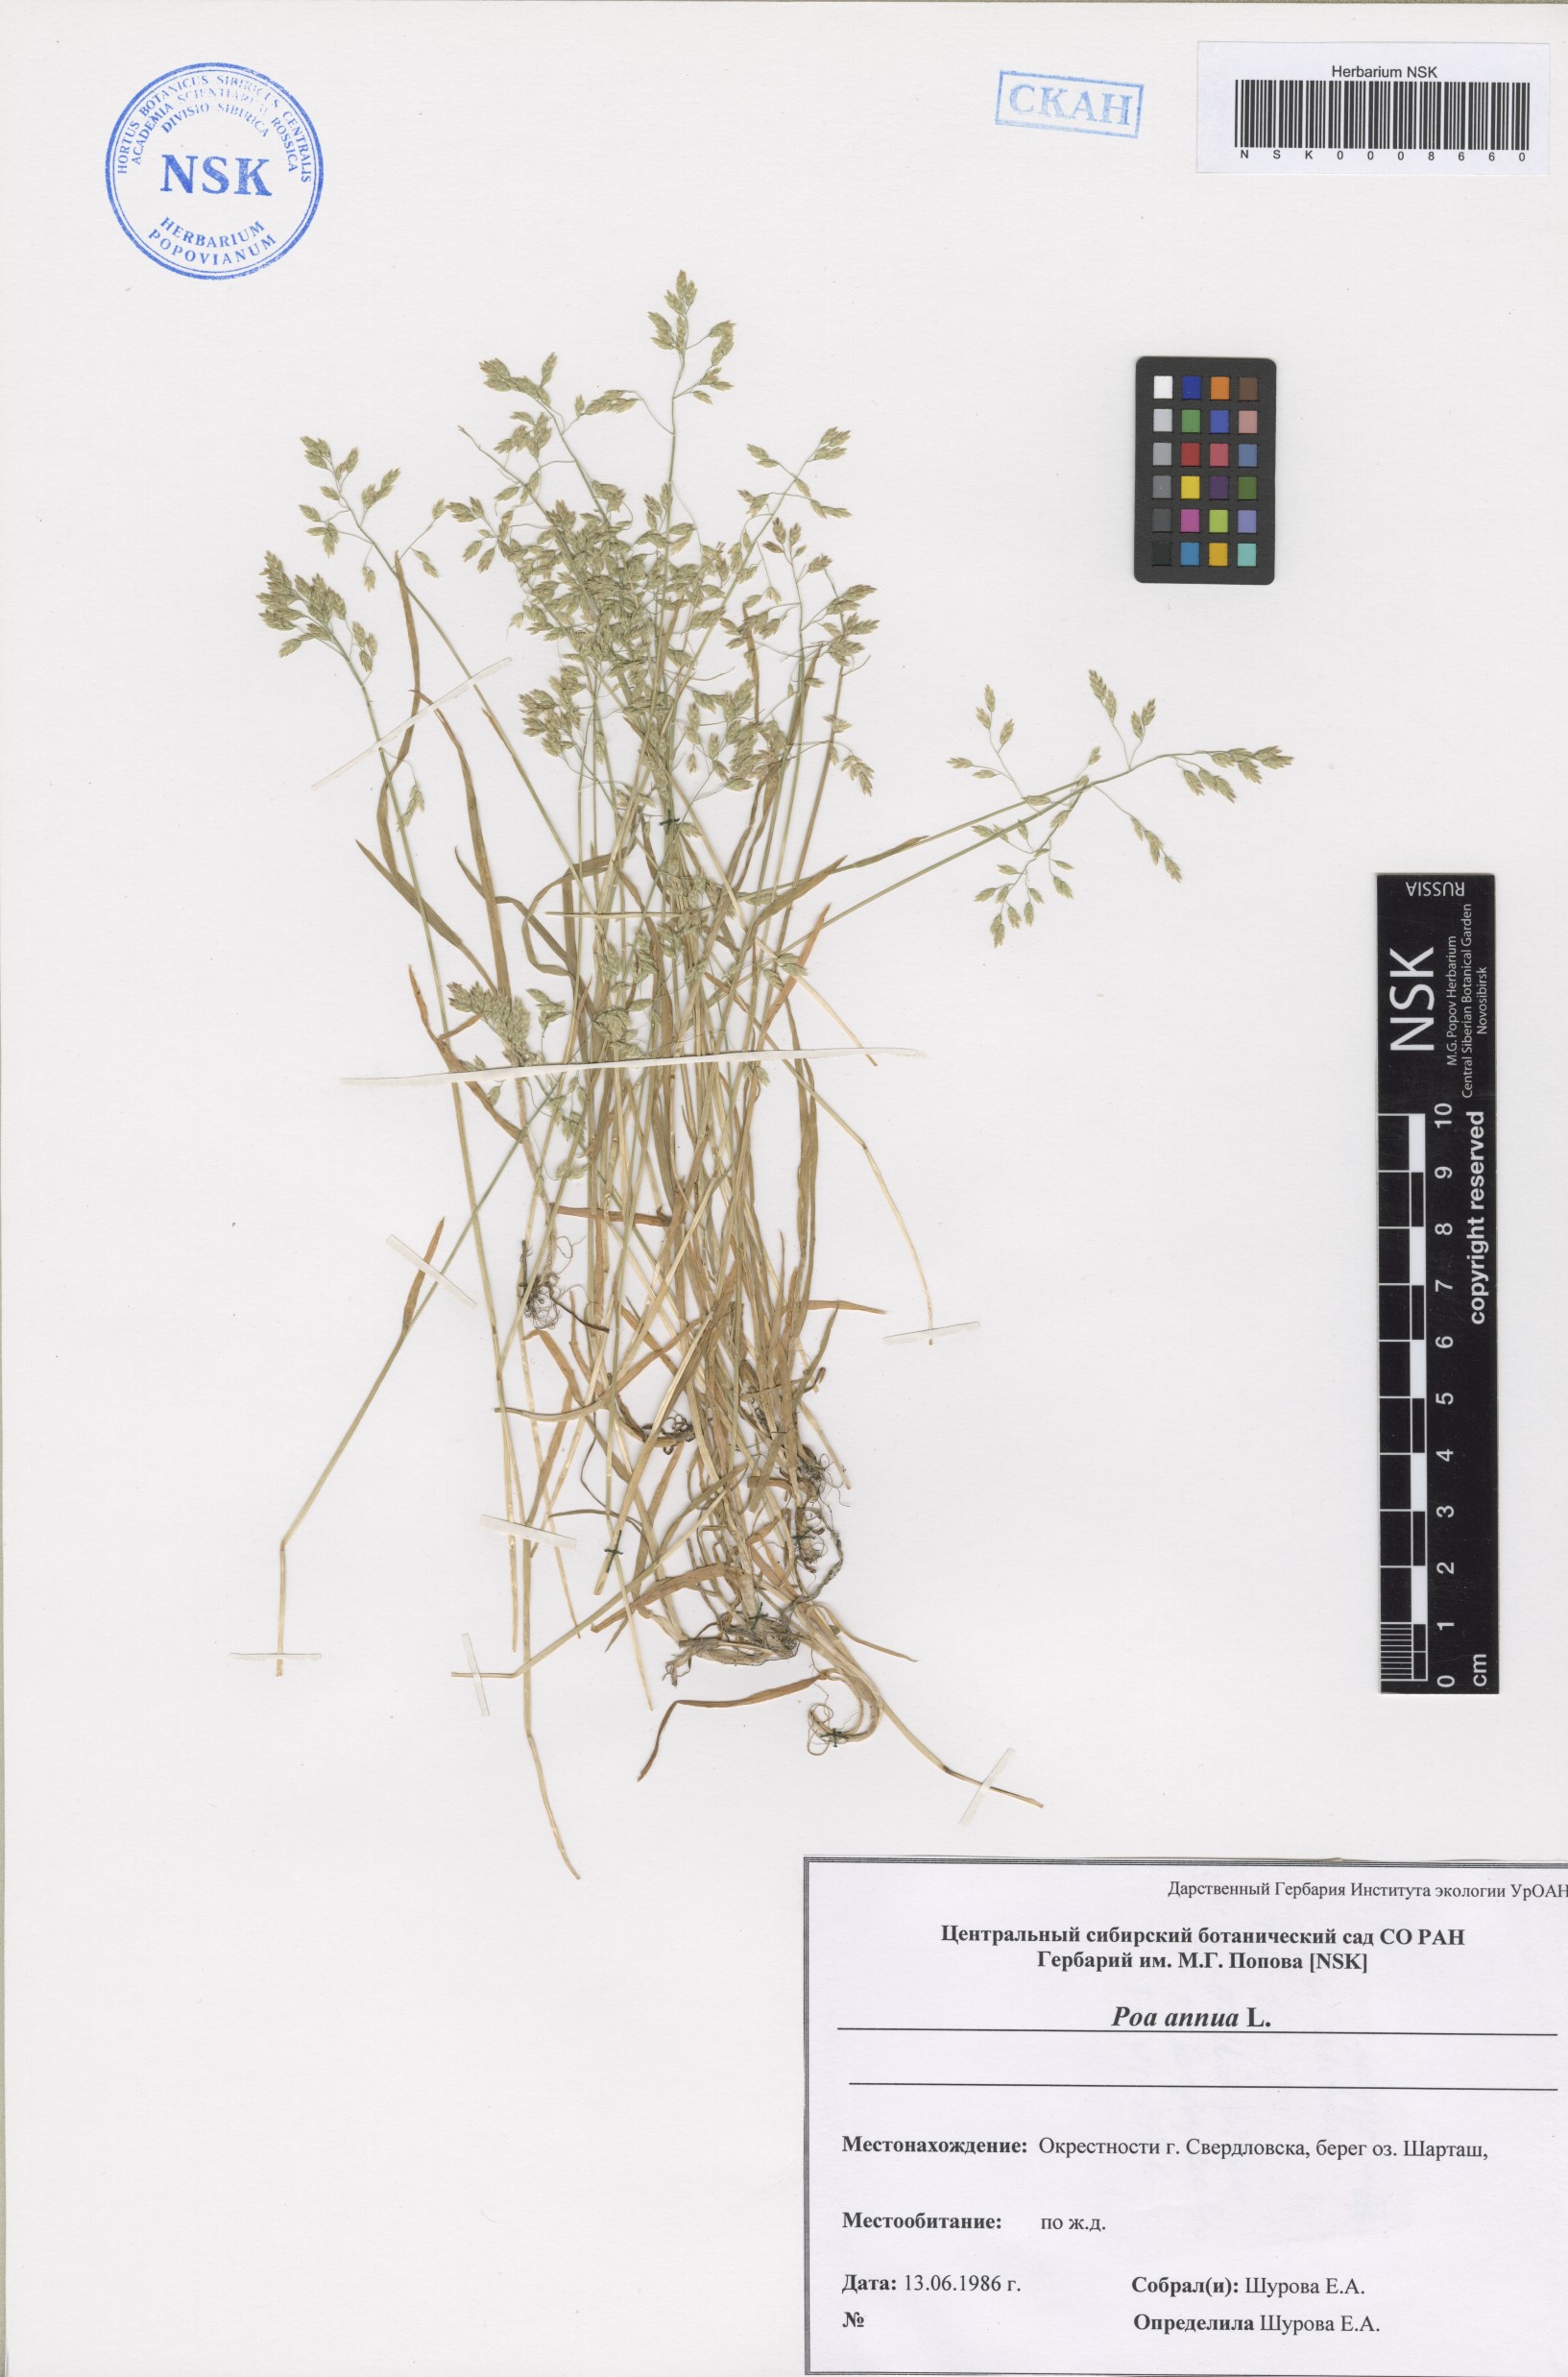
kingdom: Plantae
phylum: Tracheophyta
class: Liliopsida
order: Poales
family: Poaceae
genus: Poa
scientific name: Poa annua
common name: Annual bluegrass
